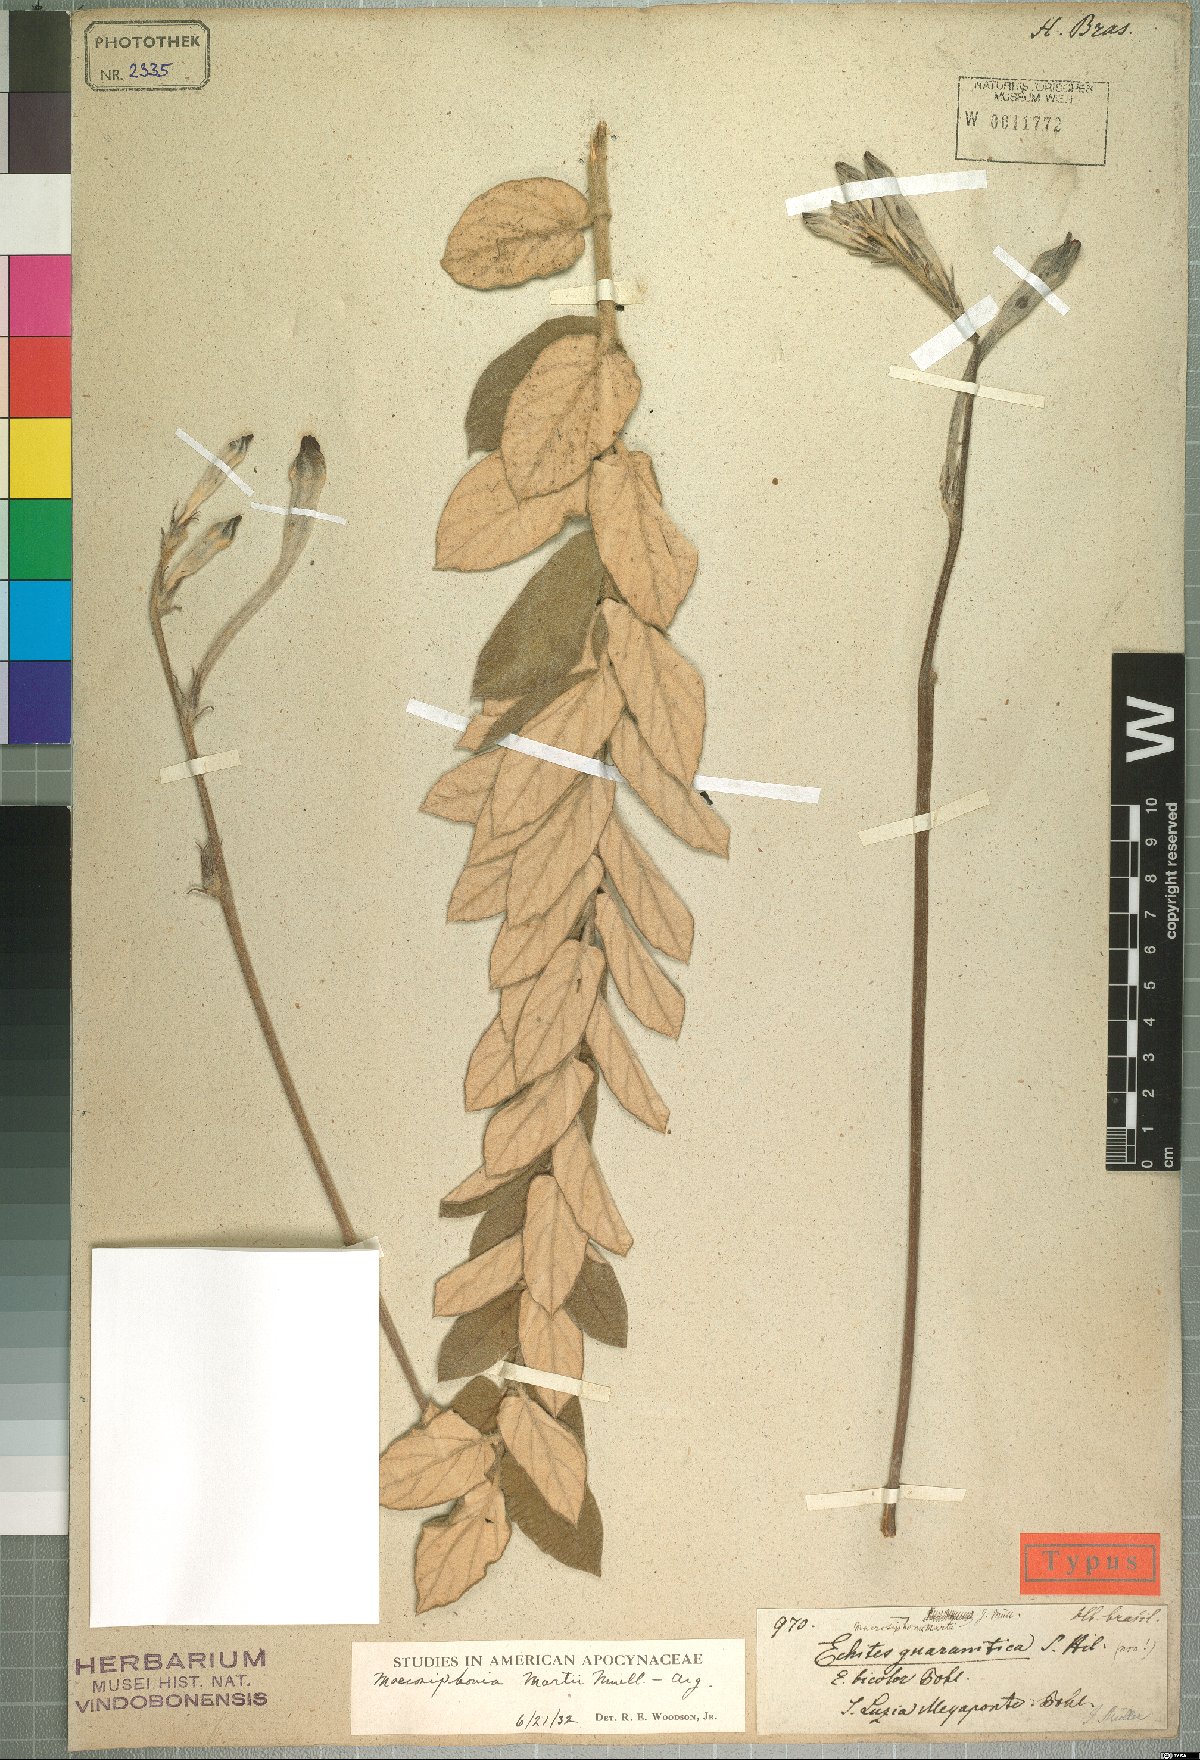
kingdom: Plantae
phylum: Tracheophyta
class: Magnoliopsida
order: Gentianales
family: Apocynaceae
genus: Mandevilla
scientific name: Mandevilla martii
